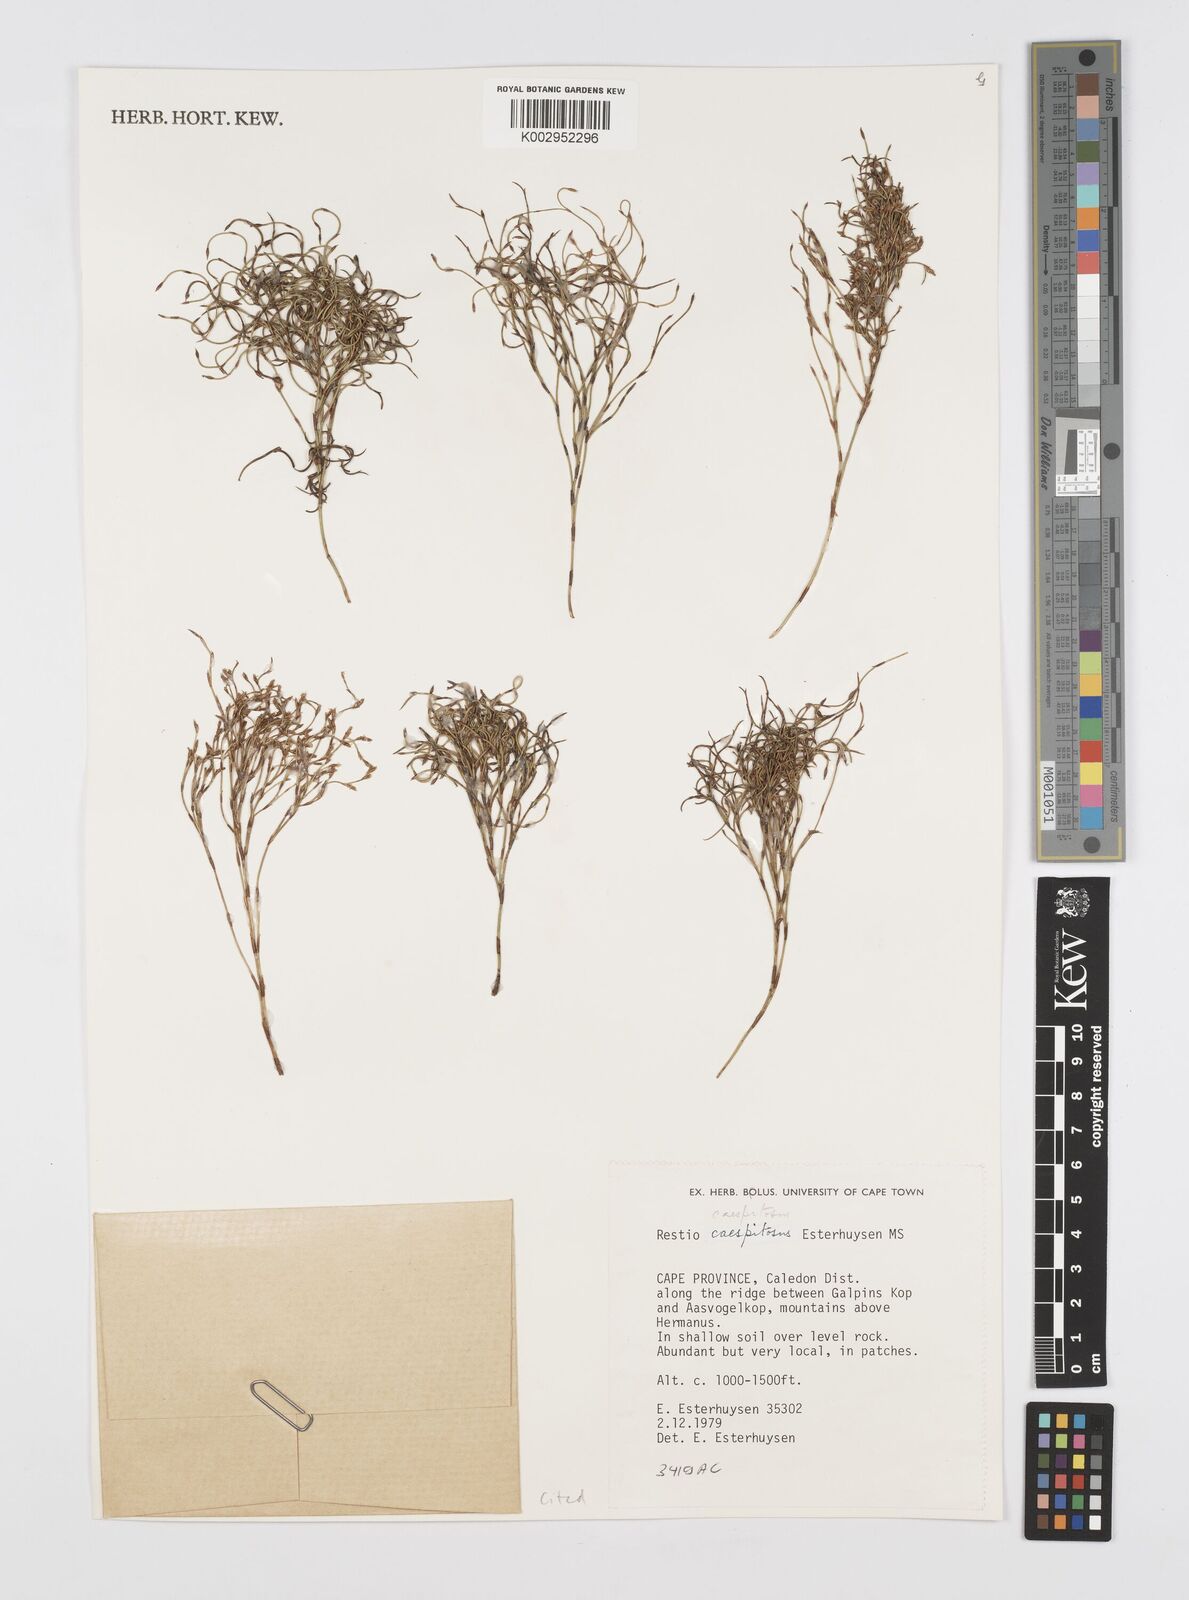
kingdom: Plantae
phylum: Tracheophyta
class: Liliopsida
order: Poales
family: Restionaceae
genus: Restio
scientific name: Restio caespitosus
